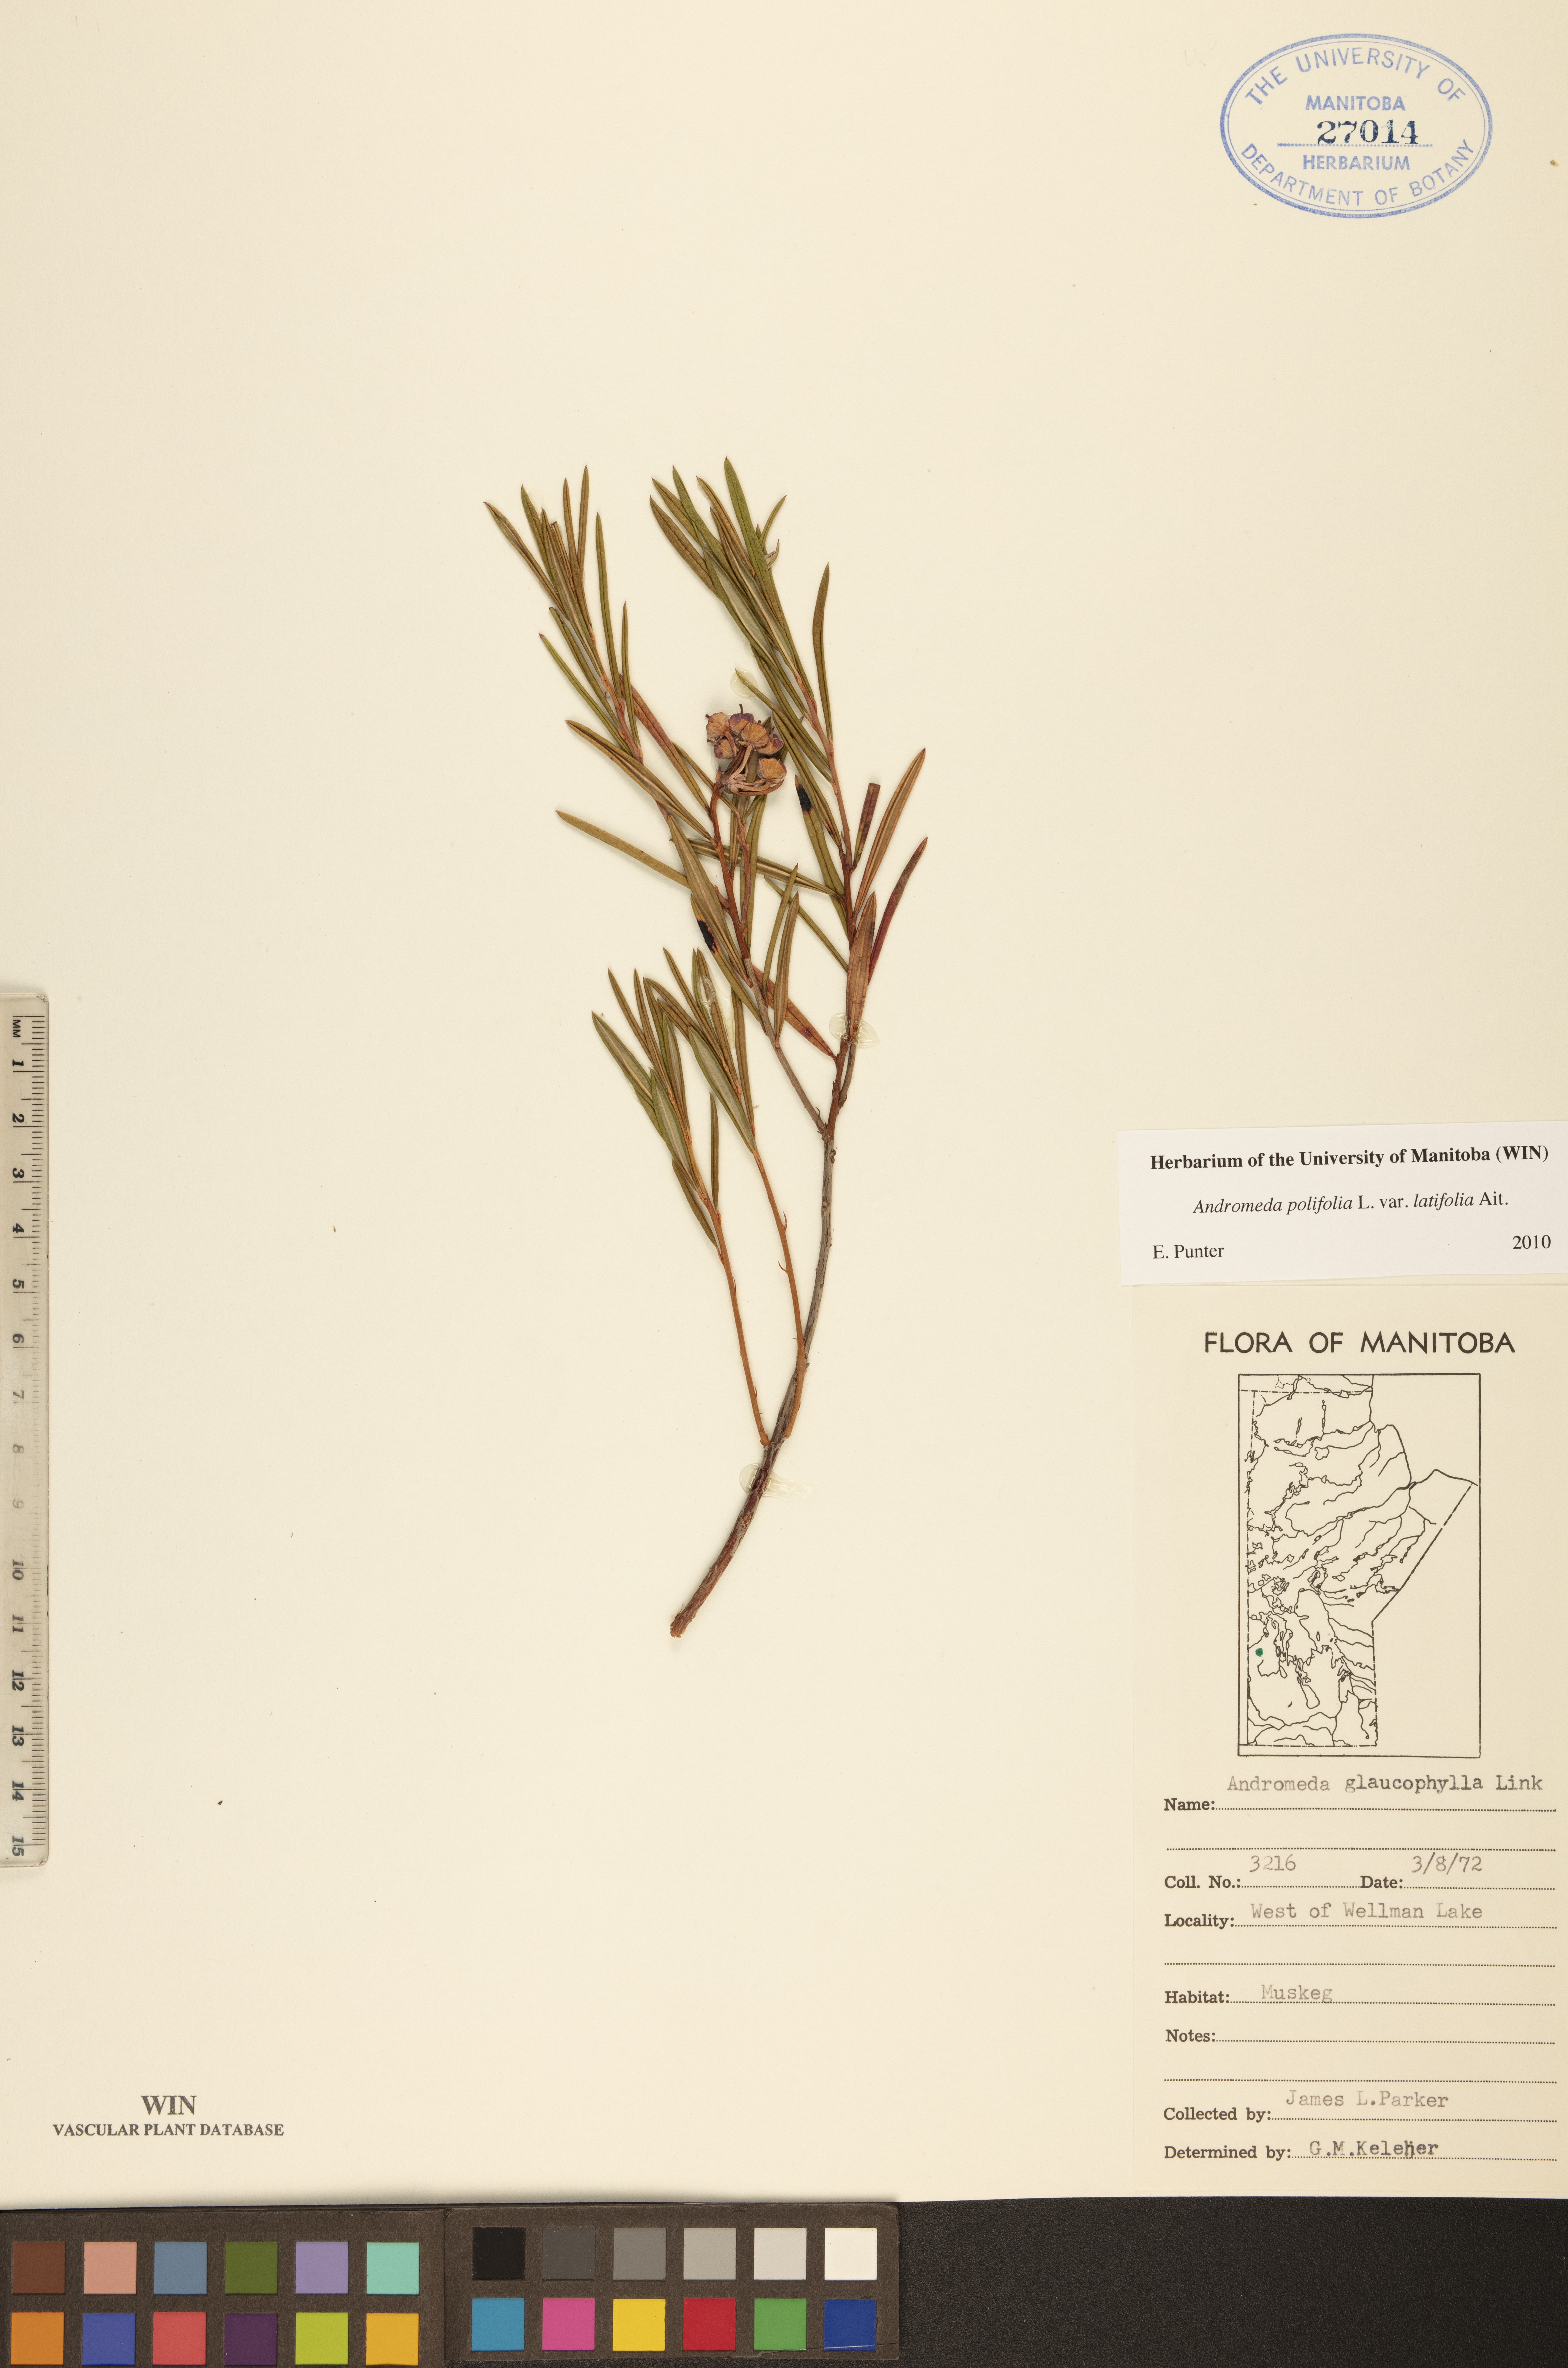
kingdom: Plantae
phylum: Tracheophyta
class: Magnoliopsida
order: Ericales
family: Ericaceae
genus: Andromeda
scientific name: Andromeda polifolia
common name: Bog-rosemary
